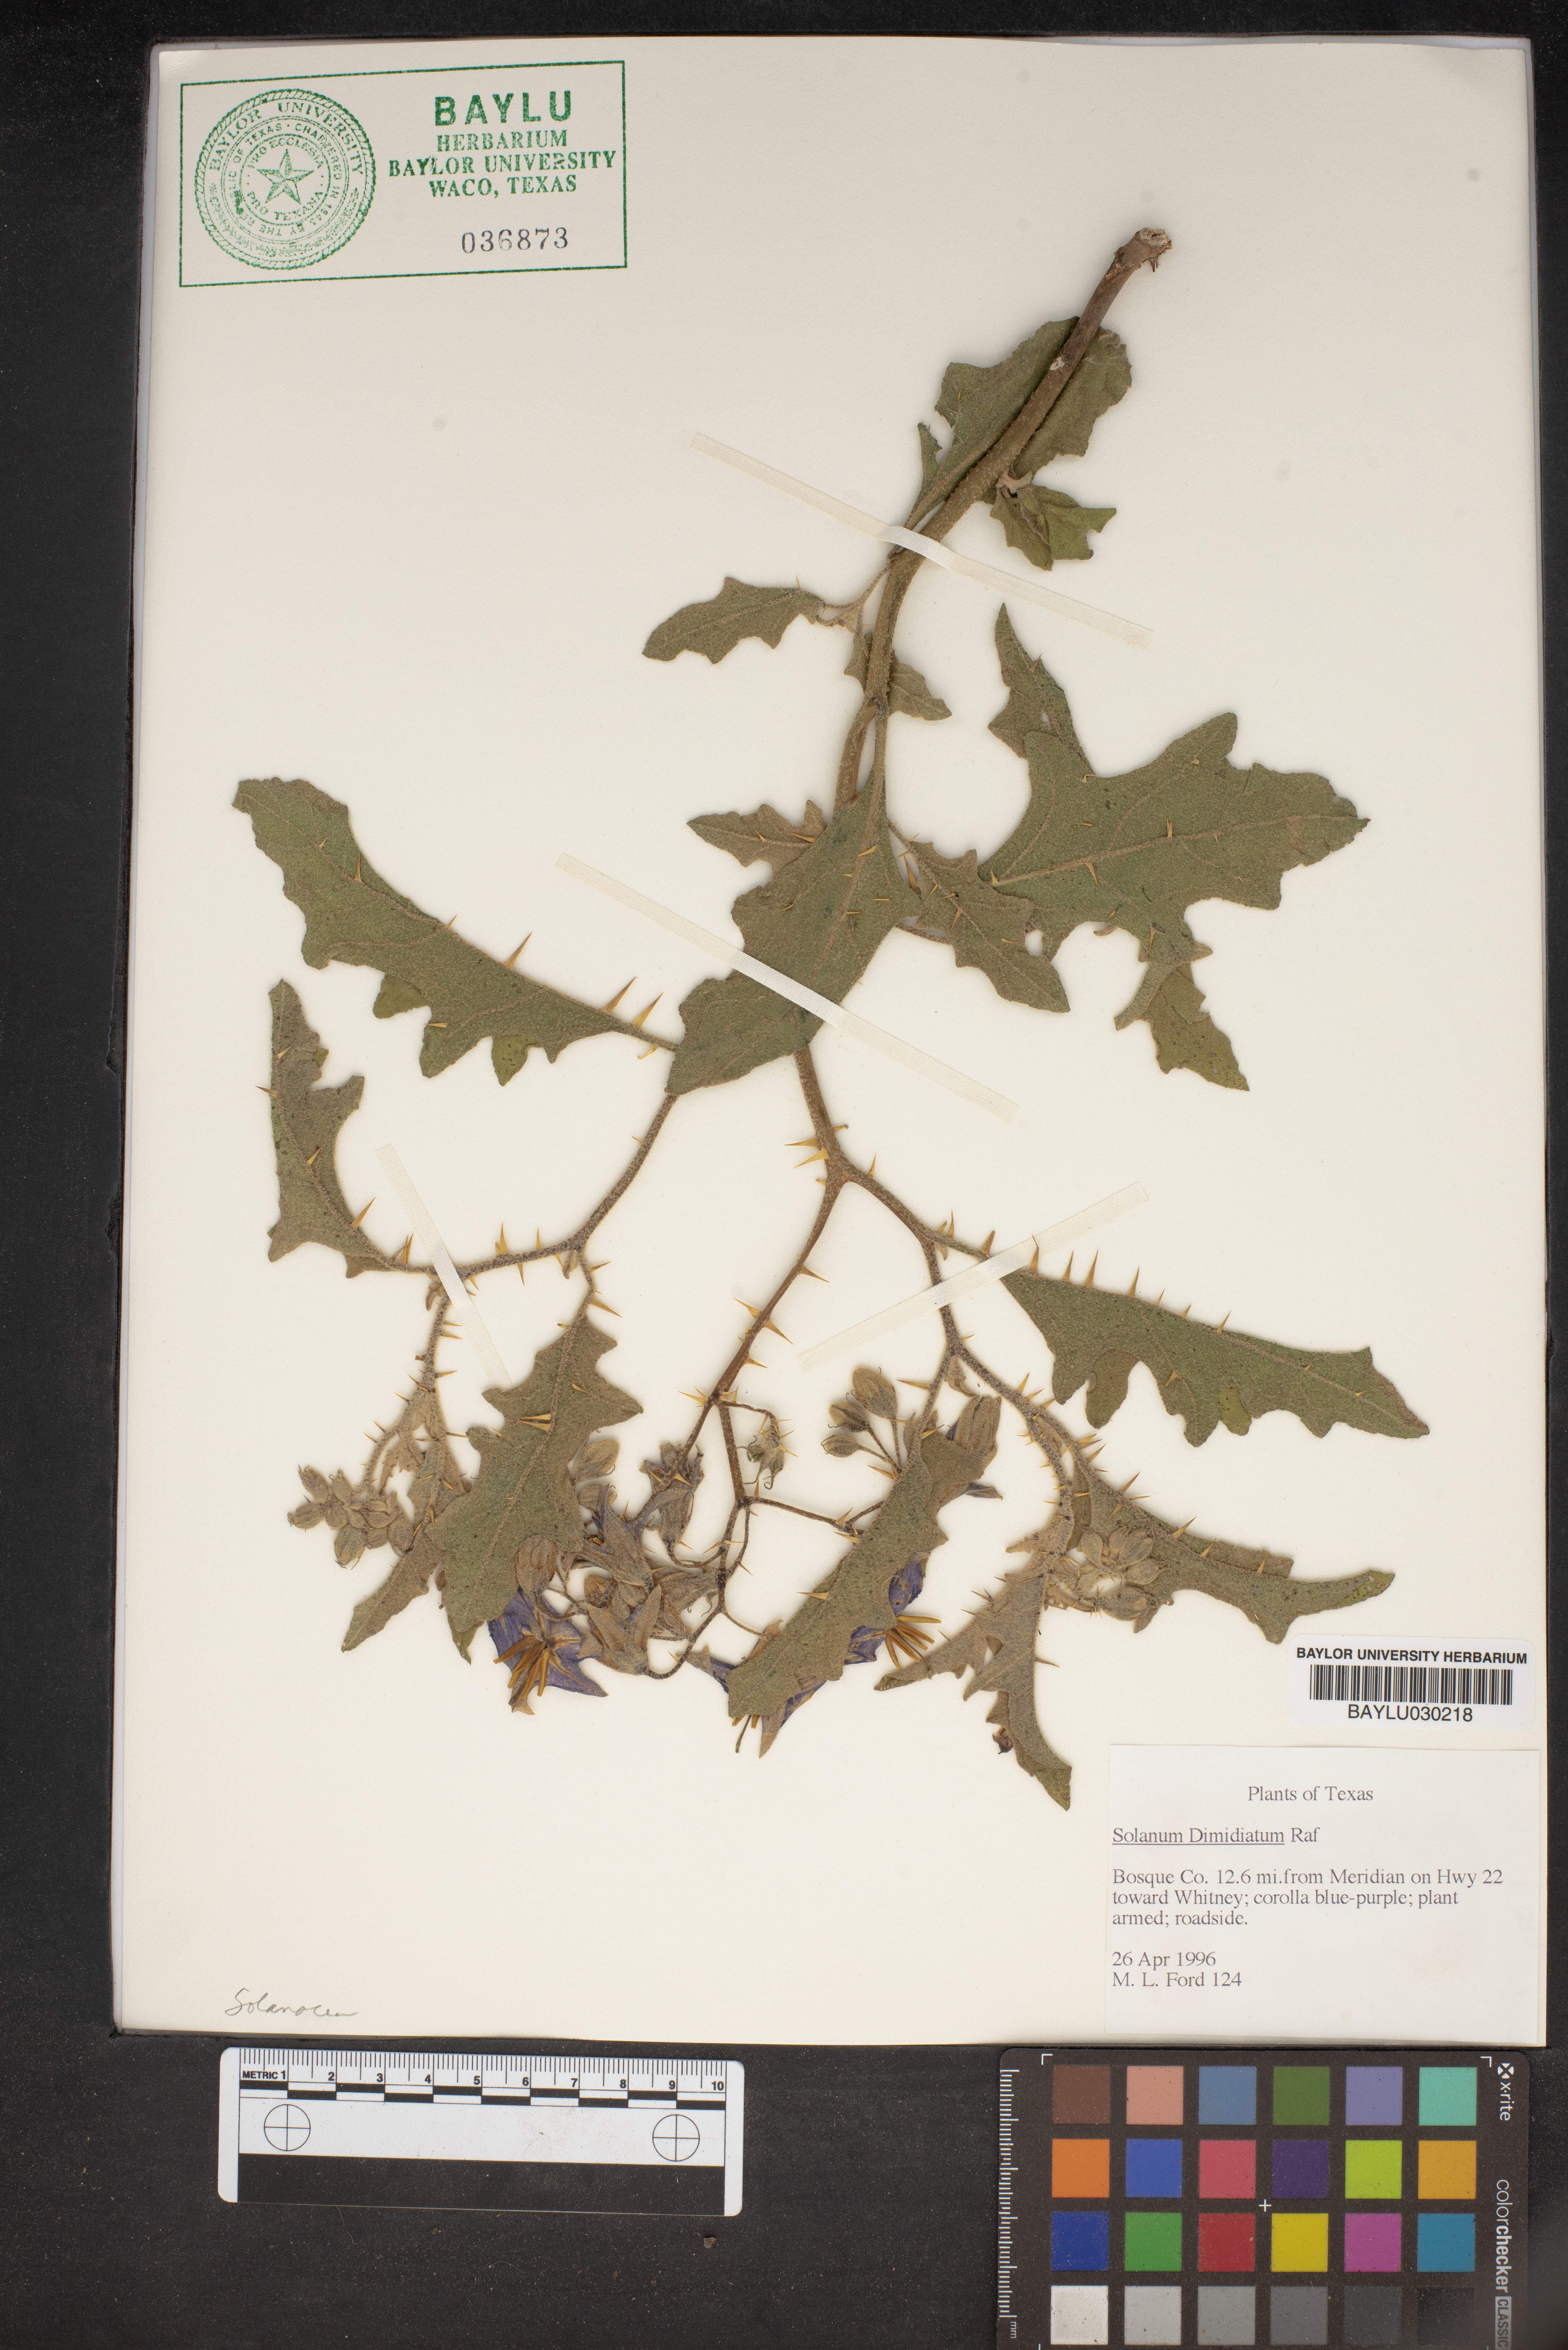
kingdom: Plantae
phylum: Tracheophyta
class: Magnoliopsida
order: Solanales
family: Solanaceae
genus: Solanum
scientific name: Solanum dimidiatum
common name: Carolina horse-nettle
